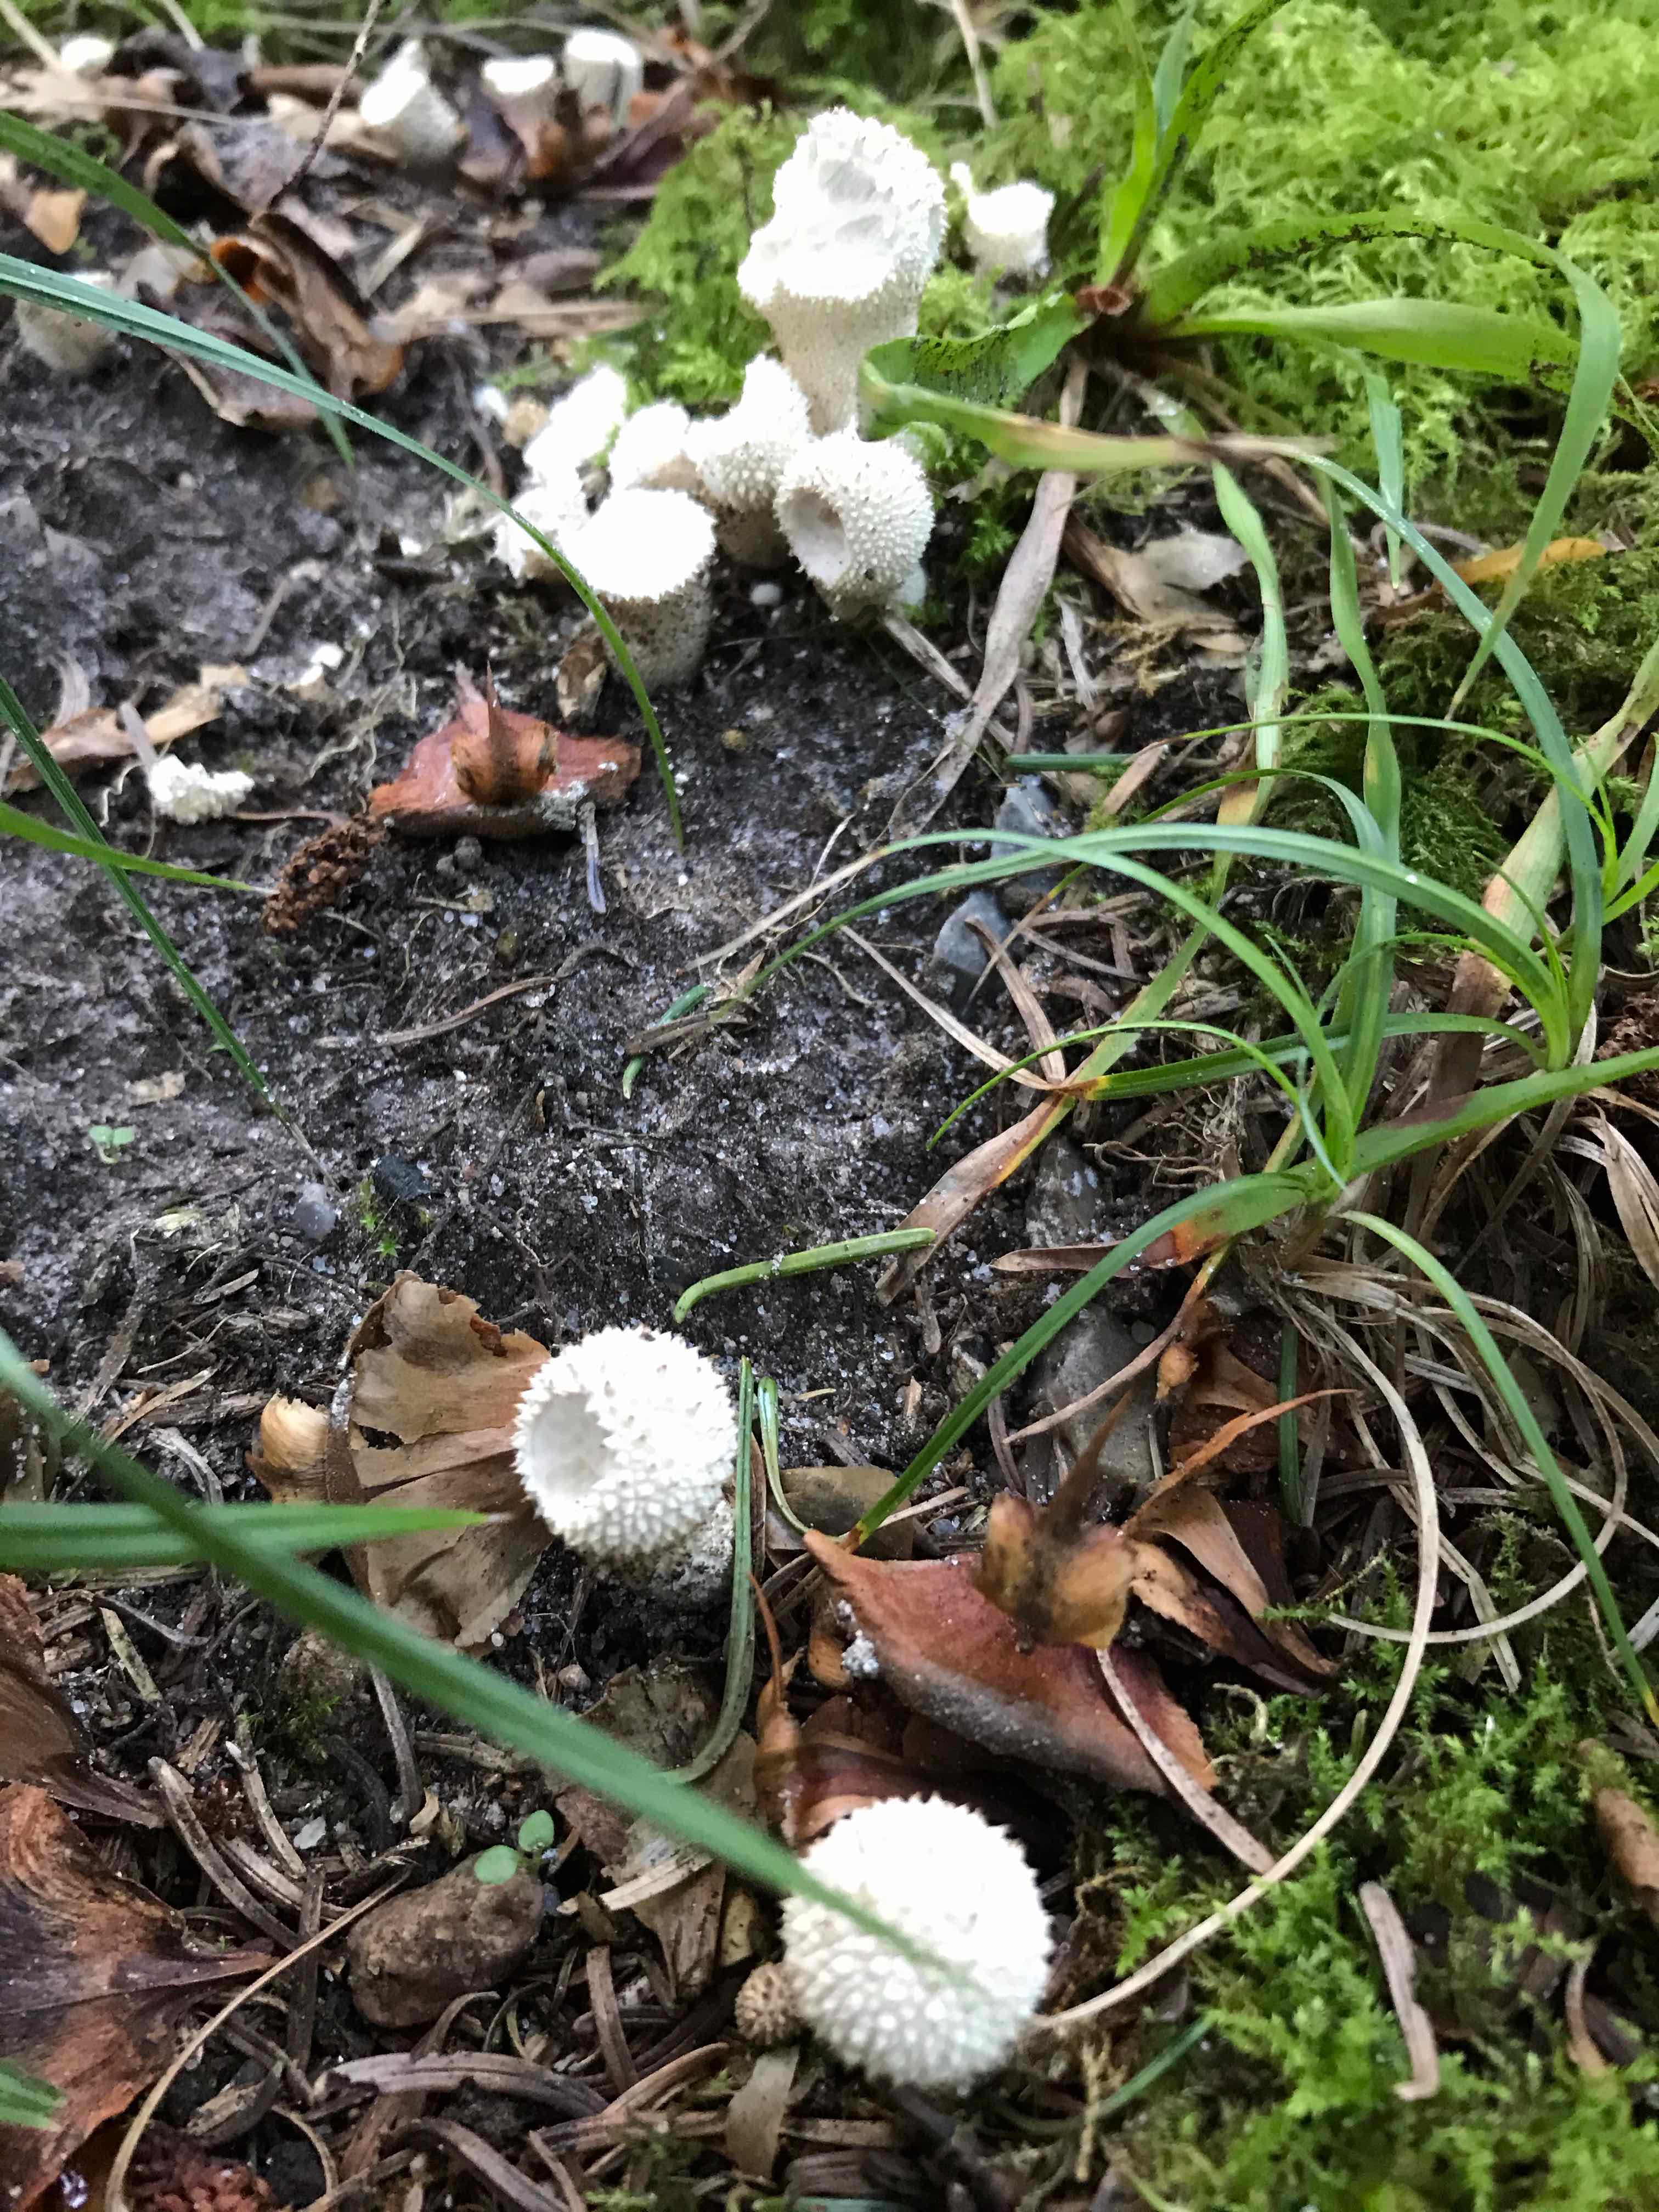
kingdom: Fungi
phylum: Basidiomycota
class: Agaricomycetes
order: Agaricales
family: Lycoperdaceae
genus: Lycoperdon
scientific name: Lycoperdon perlatum
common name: krystal-støvbold
